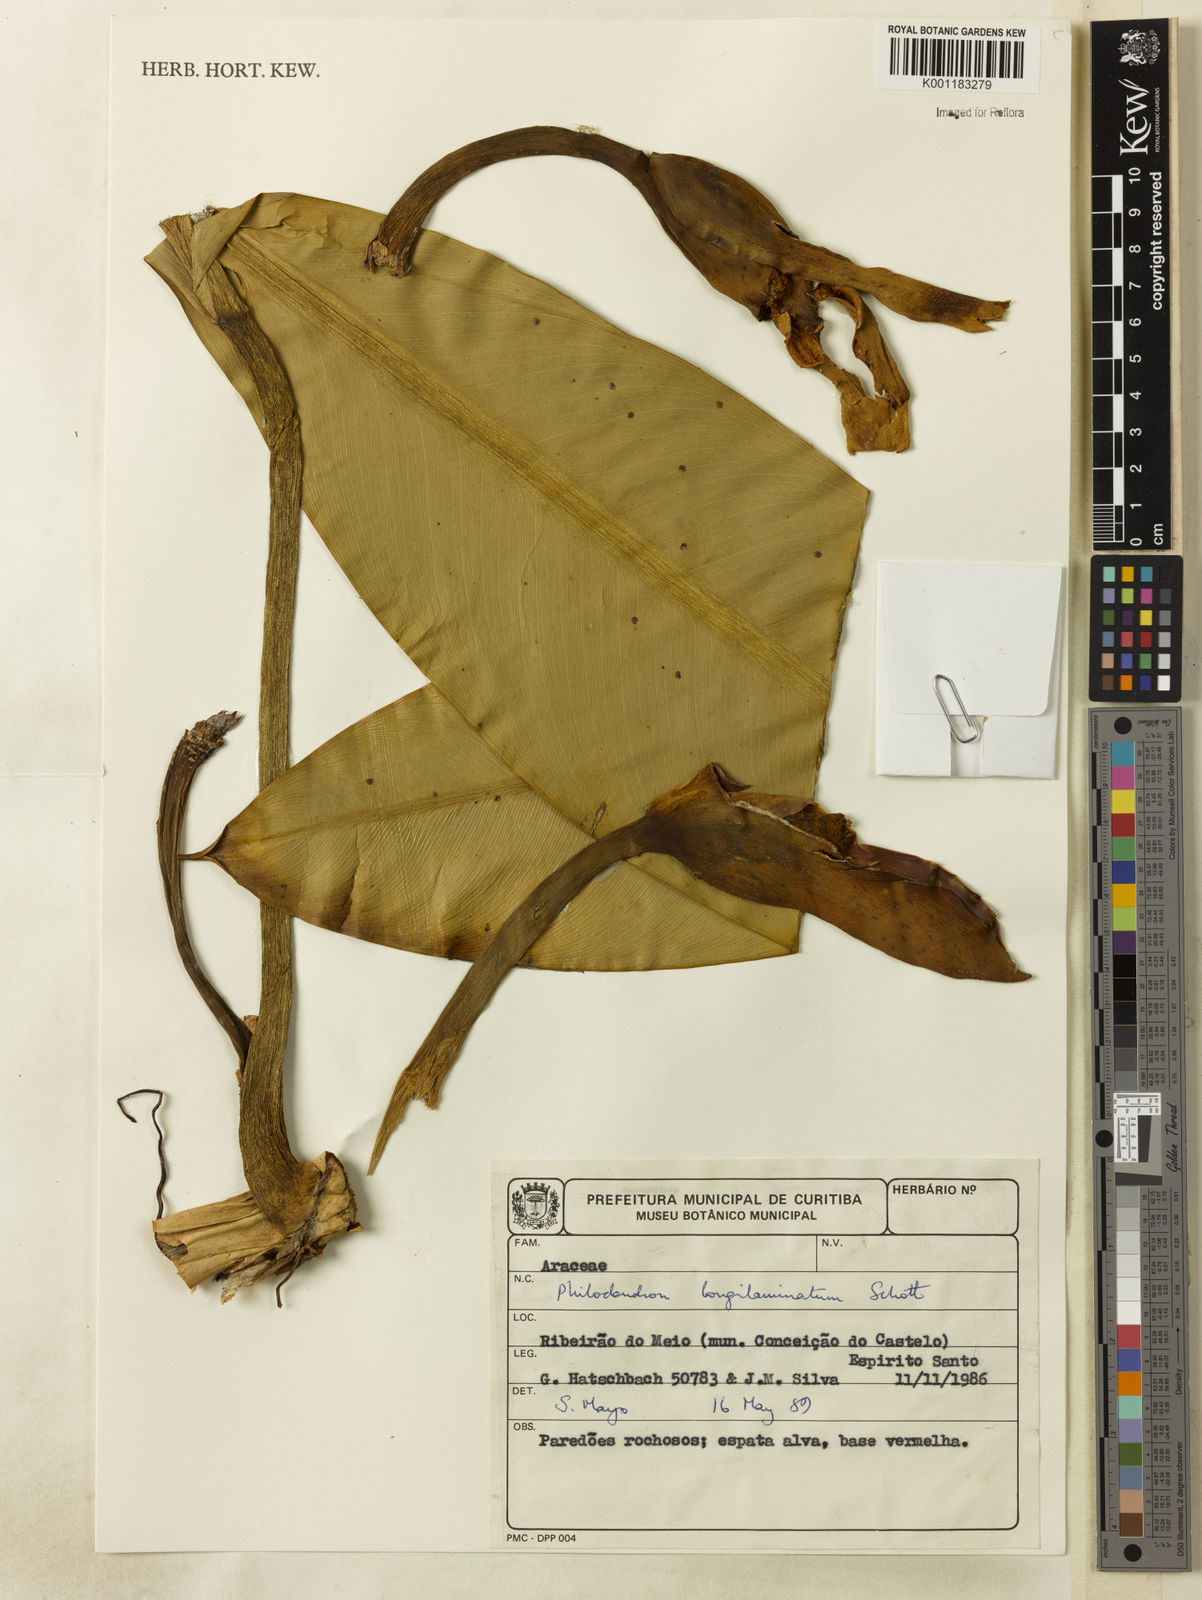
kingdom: Plantae
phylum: Tracheophyta
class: Liliopsida
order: Alismatales
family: Araceae
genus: Philodendron
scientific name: Philodendron longilaminatum
